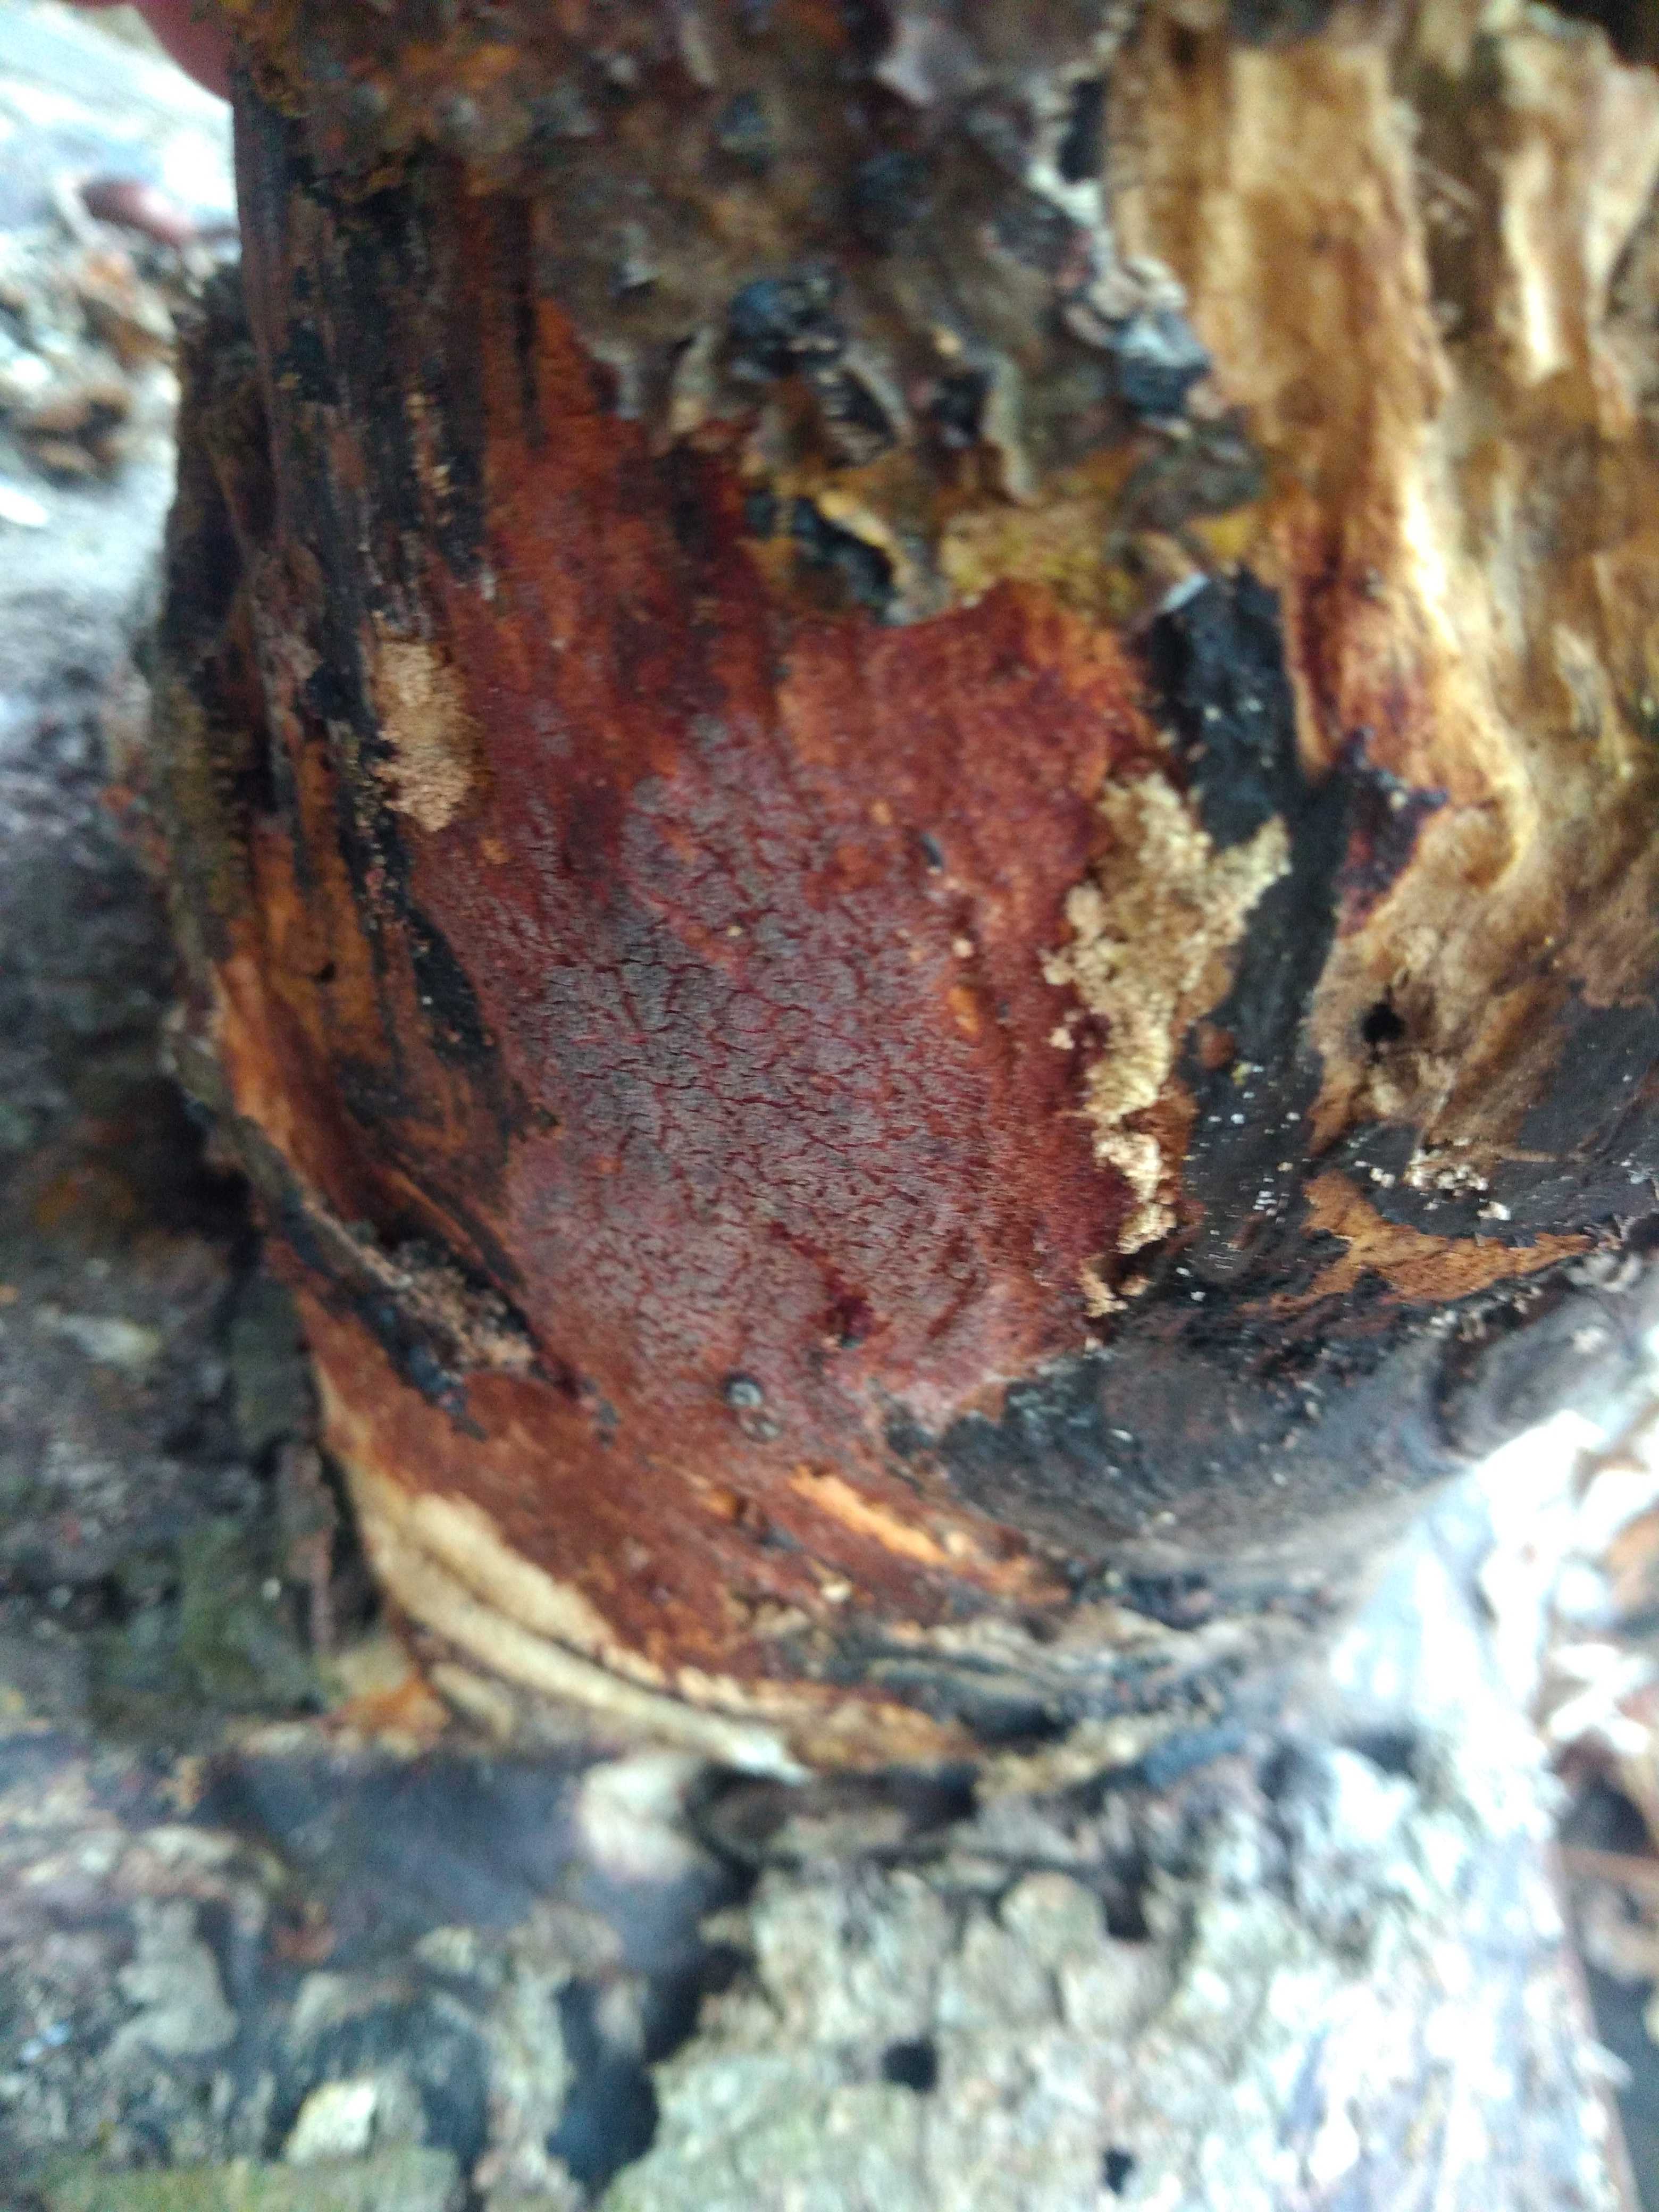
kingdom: Fungi
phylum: Basidiomycota
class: Agaricomycetes
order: Polyporales
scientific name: Polyporales
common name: poresvampordenen
